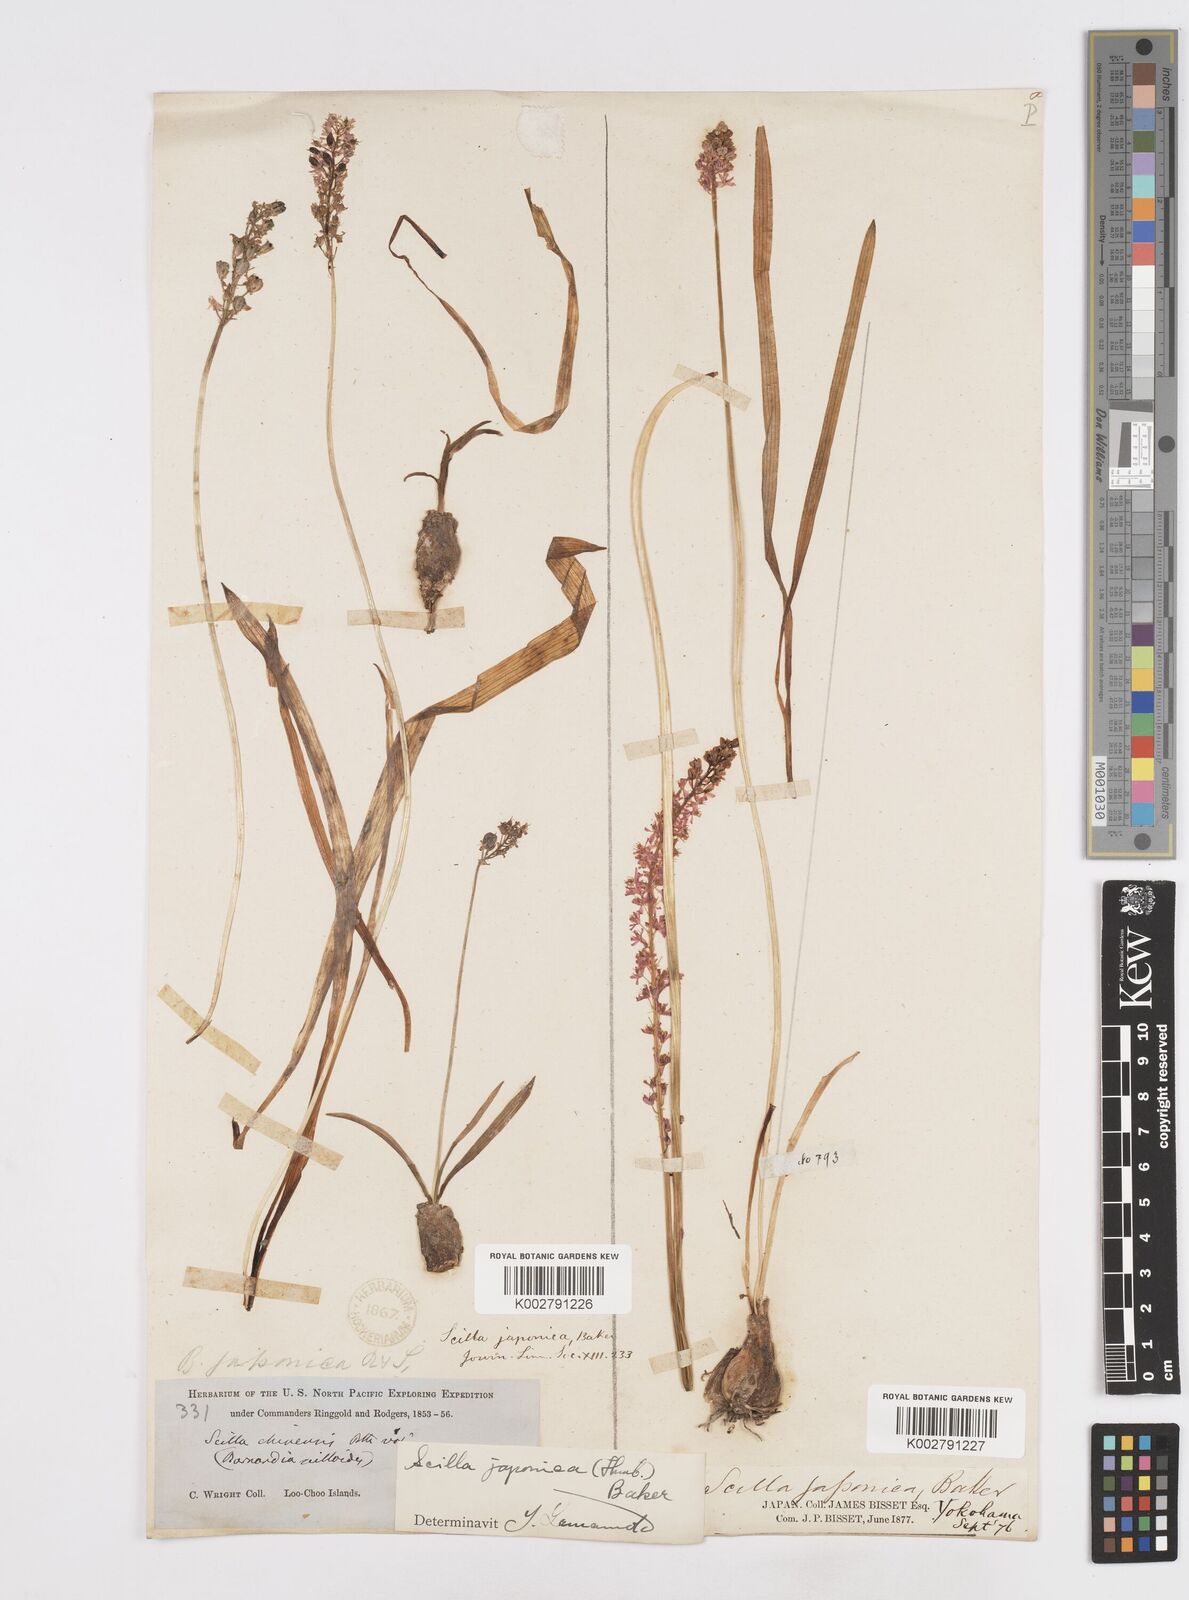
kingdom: Plantae
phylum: Tracheophyta
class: Liliopsida
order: Liliales
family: Melanthiaceae
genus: Helonias
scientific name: Helonias breviscapa
